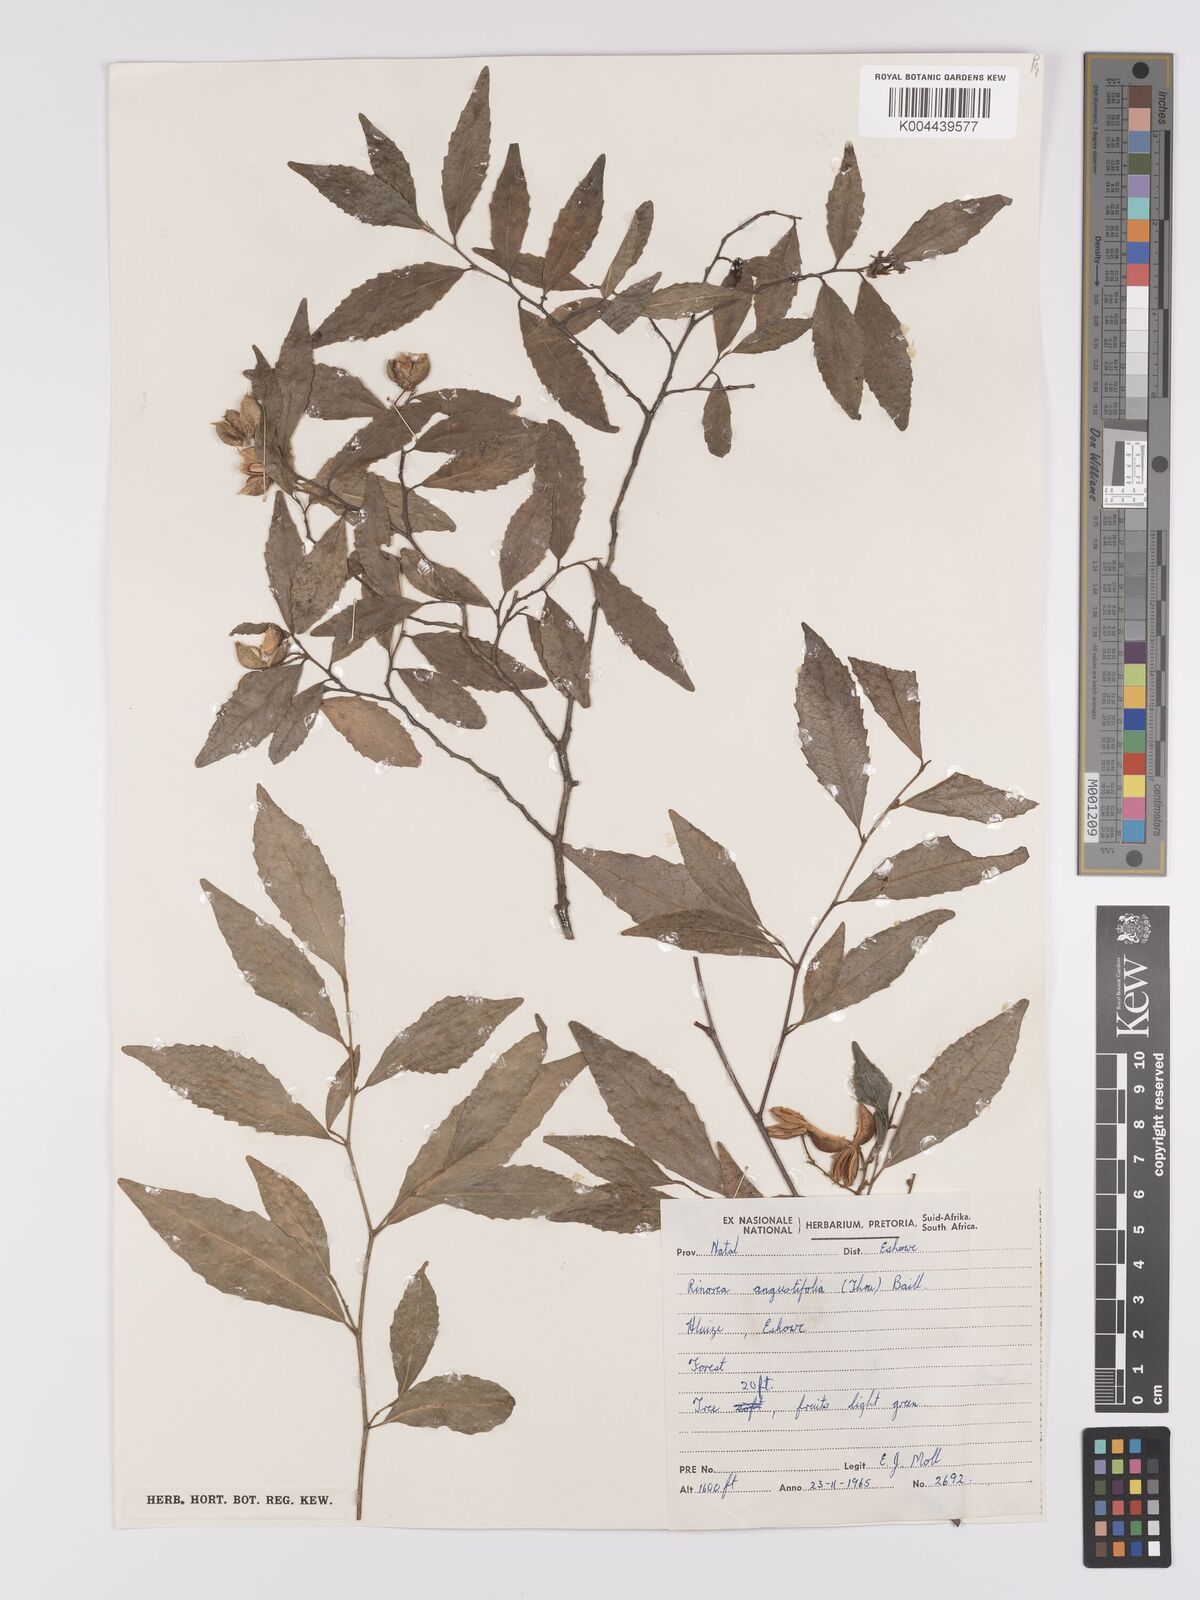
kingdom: Plantae
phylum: Tracheophyta
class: Magnoliopsida
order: Malpighiales
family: Violaceae
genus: Rinorea
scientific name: Rinorea angustifolia
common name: White violet-bush
